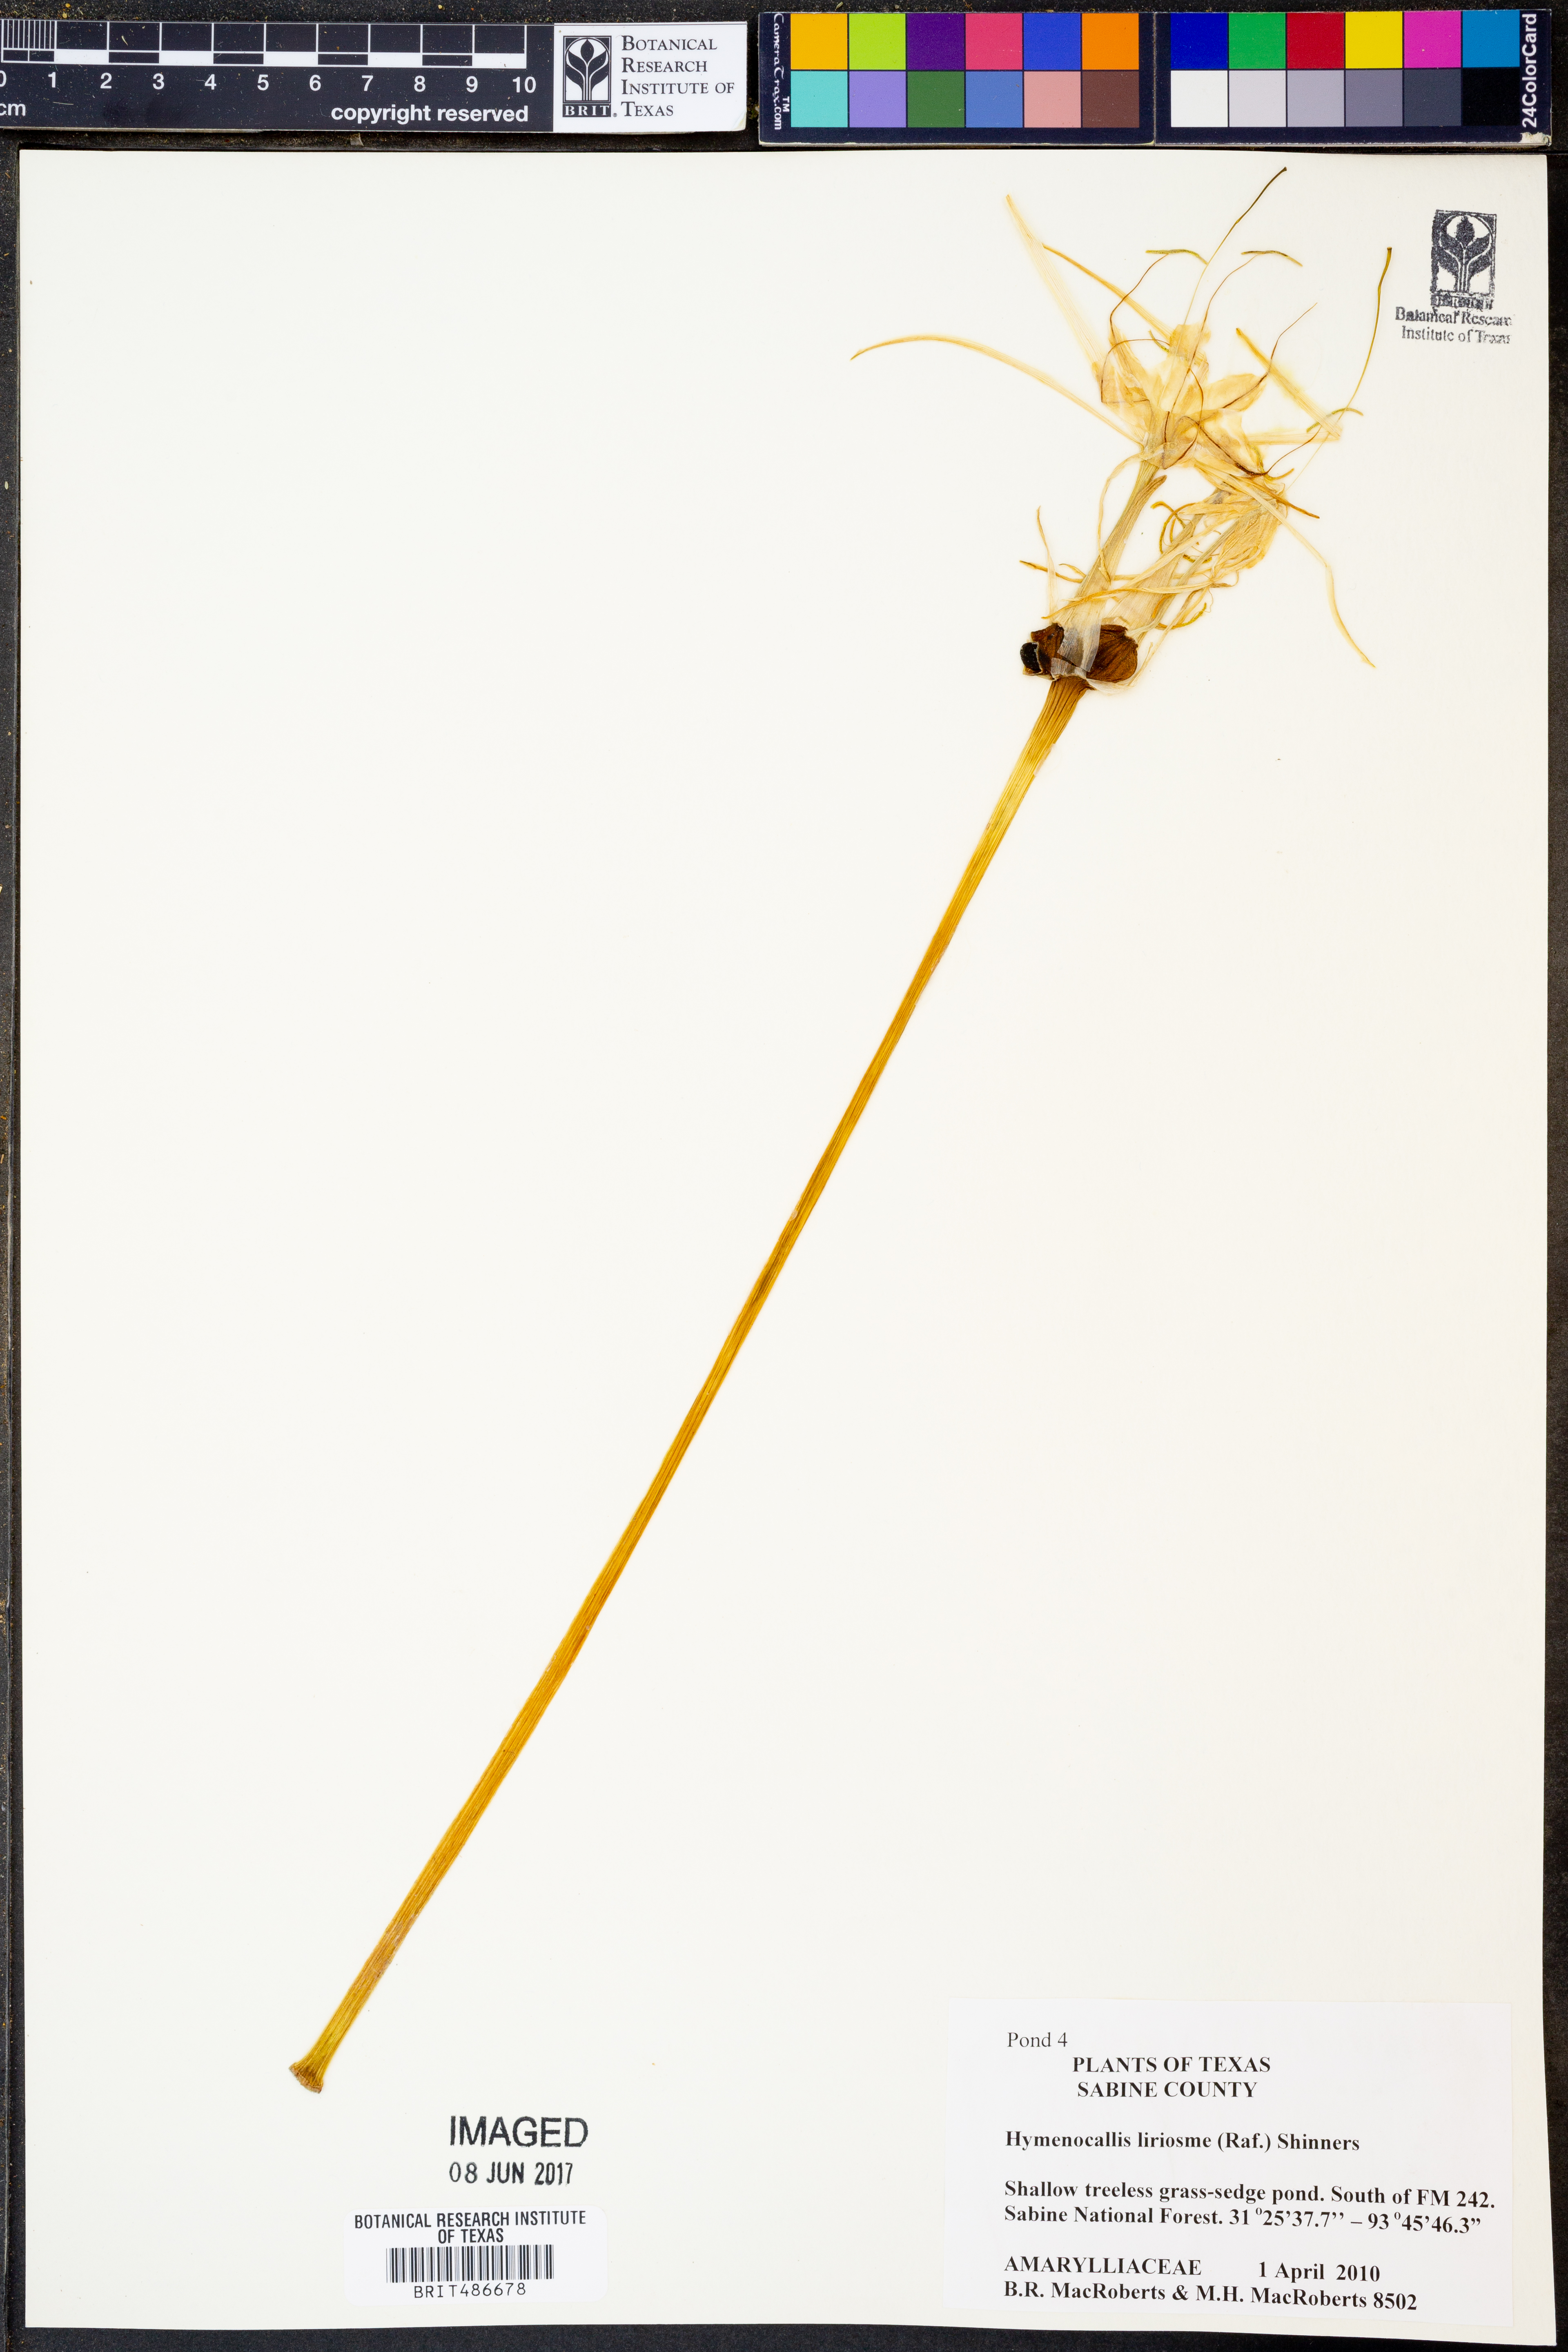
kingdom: Plantae
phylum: Tracheophyta
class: Liliopsida
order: Asparagales
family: Amaryllidaceae
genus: Hymenocallis
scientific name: Hymenocallis liriosme
